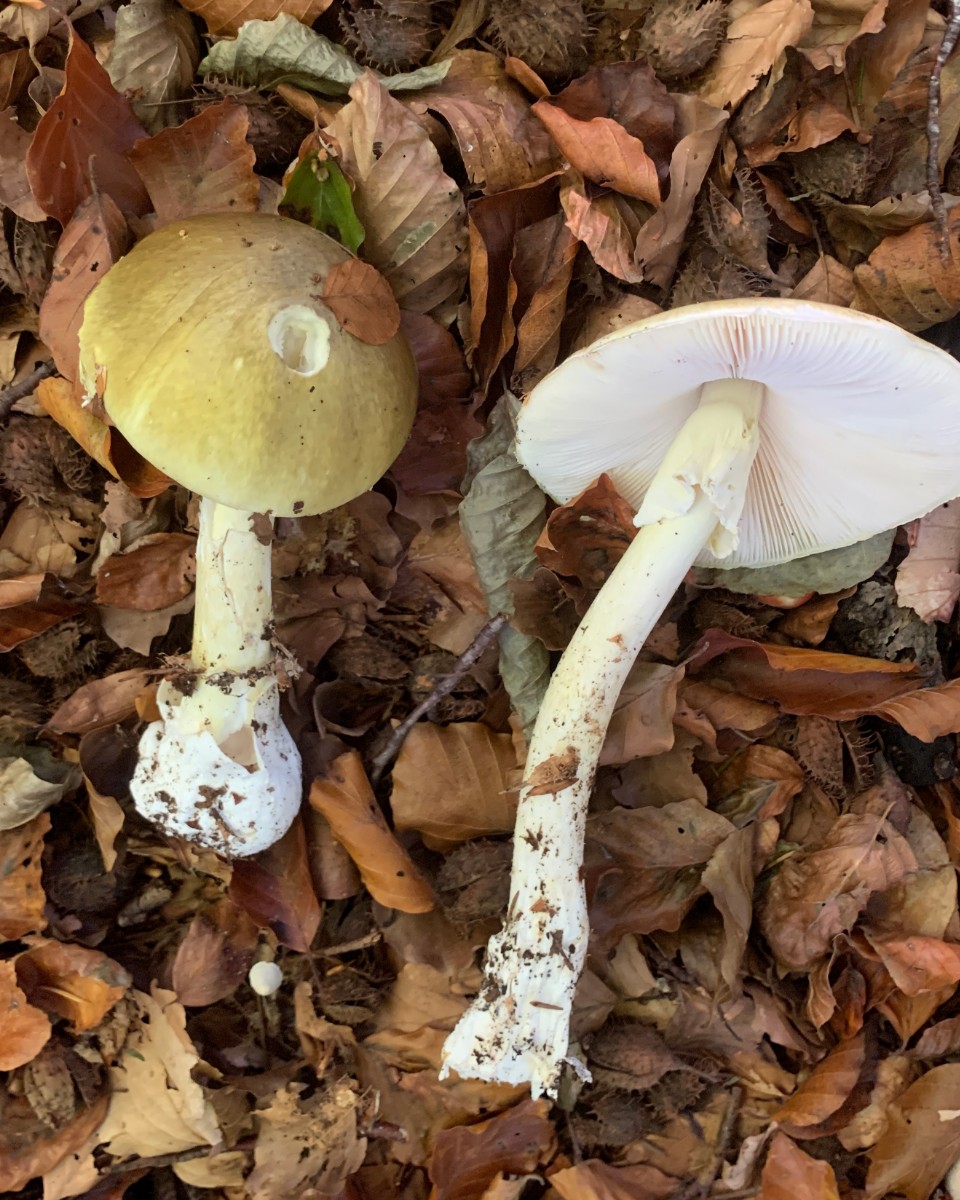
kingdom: Fungi
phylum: Basidiomycota
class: Agaricomycetes
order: Agaricales
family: Amanitaceae
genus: Amanita
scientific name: Amanita phalloides
